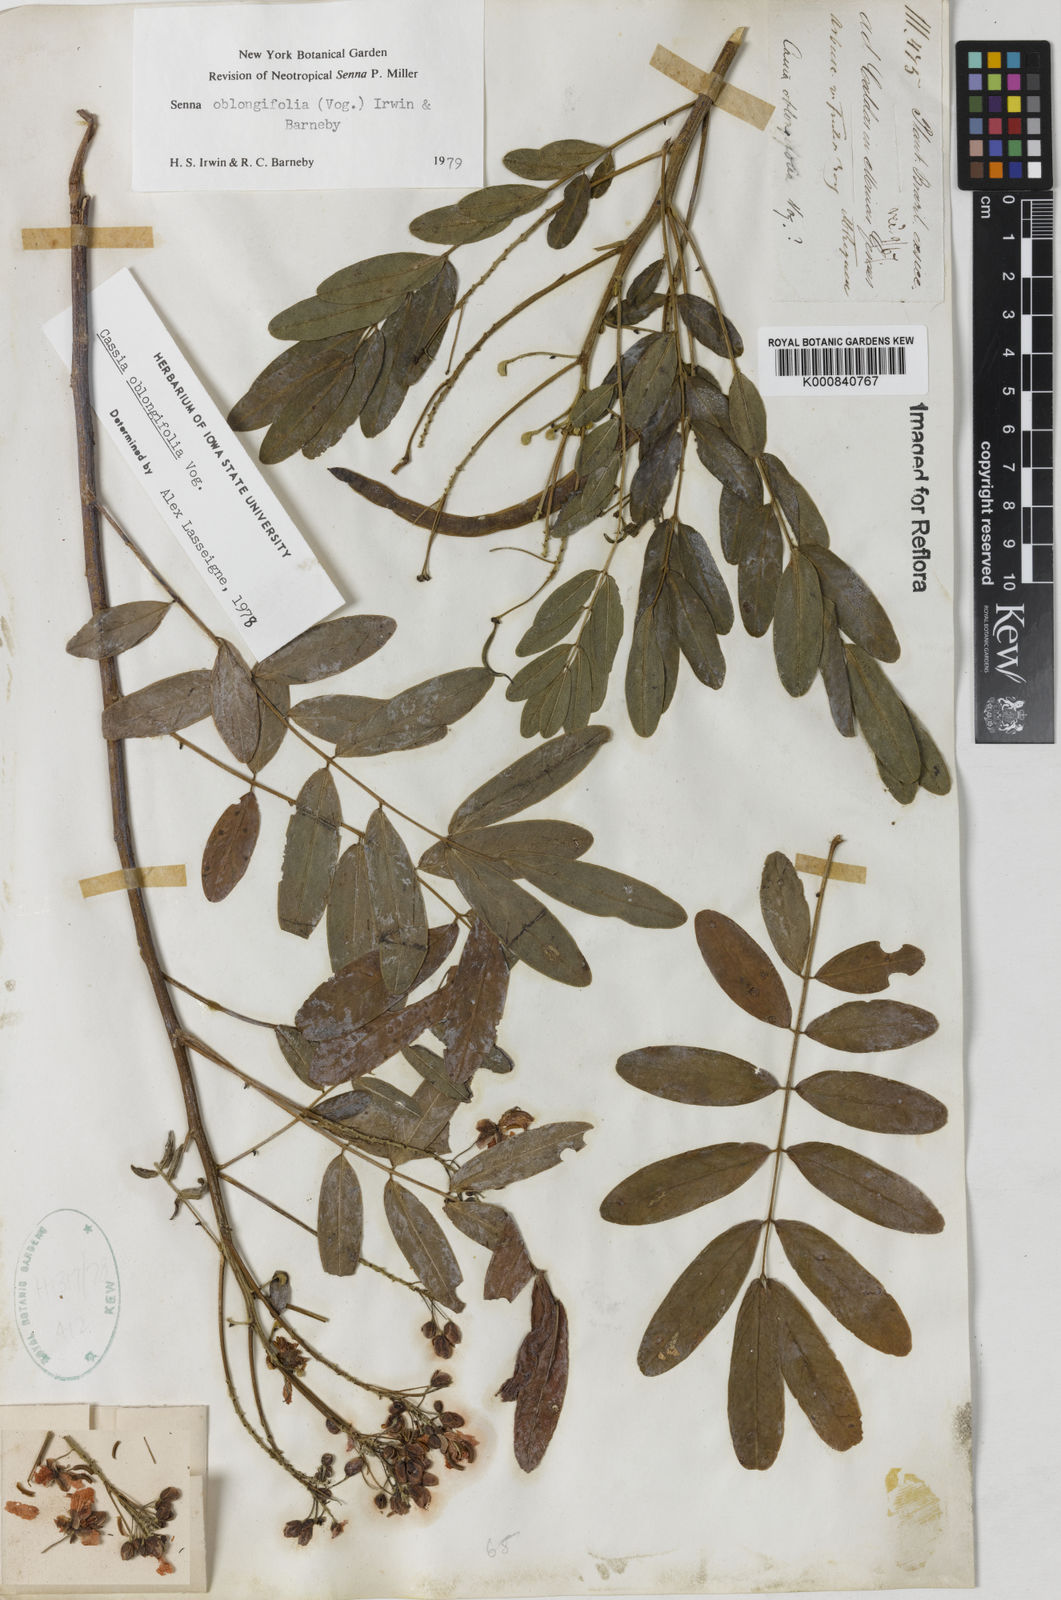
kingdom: Plantae
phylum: Tracheophyta
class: Magnoliopsida
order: Fabales
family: Fabaceae
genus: Senna
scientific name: Senna oblongifolia
